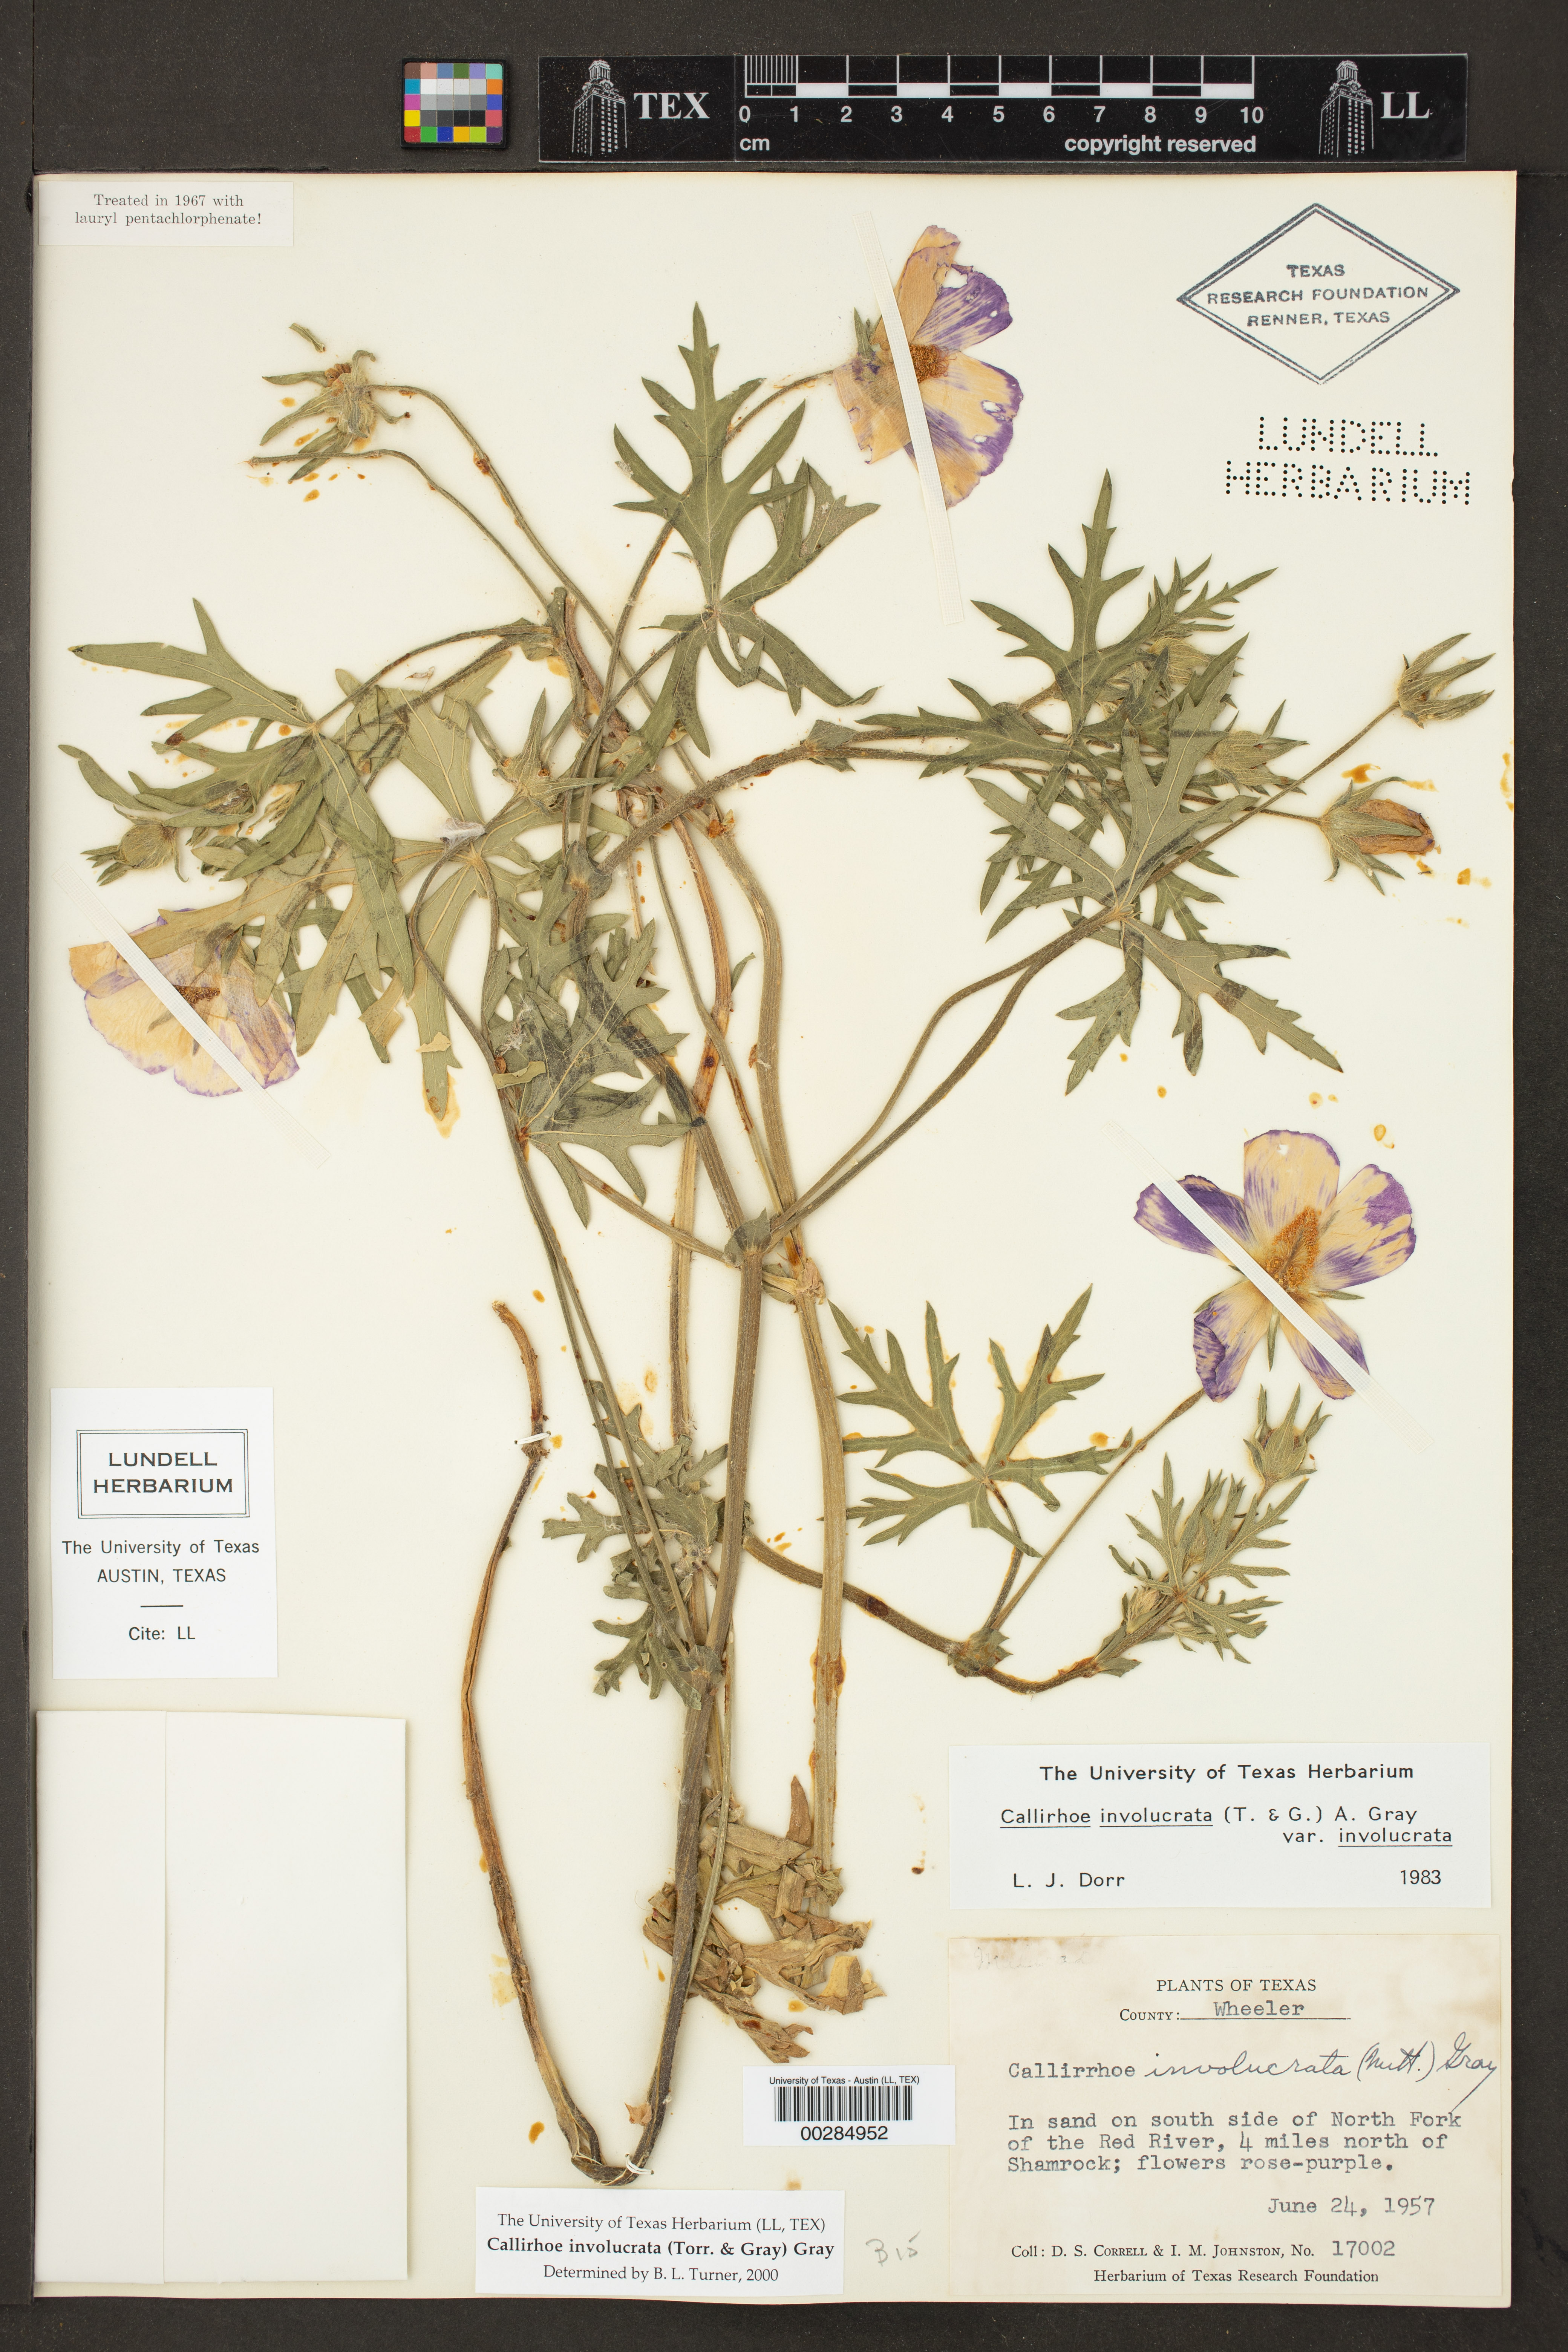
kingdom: Plantae
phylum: Tracheophyta
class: Magnoliopsida
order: Malvales
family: Malvaceae
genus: Callirhoe
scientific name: Callirhoe involucrata
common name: Purple poppy-mallow
